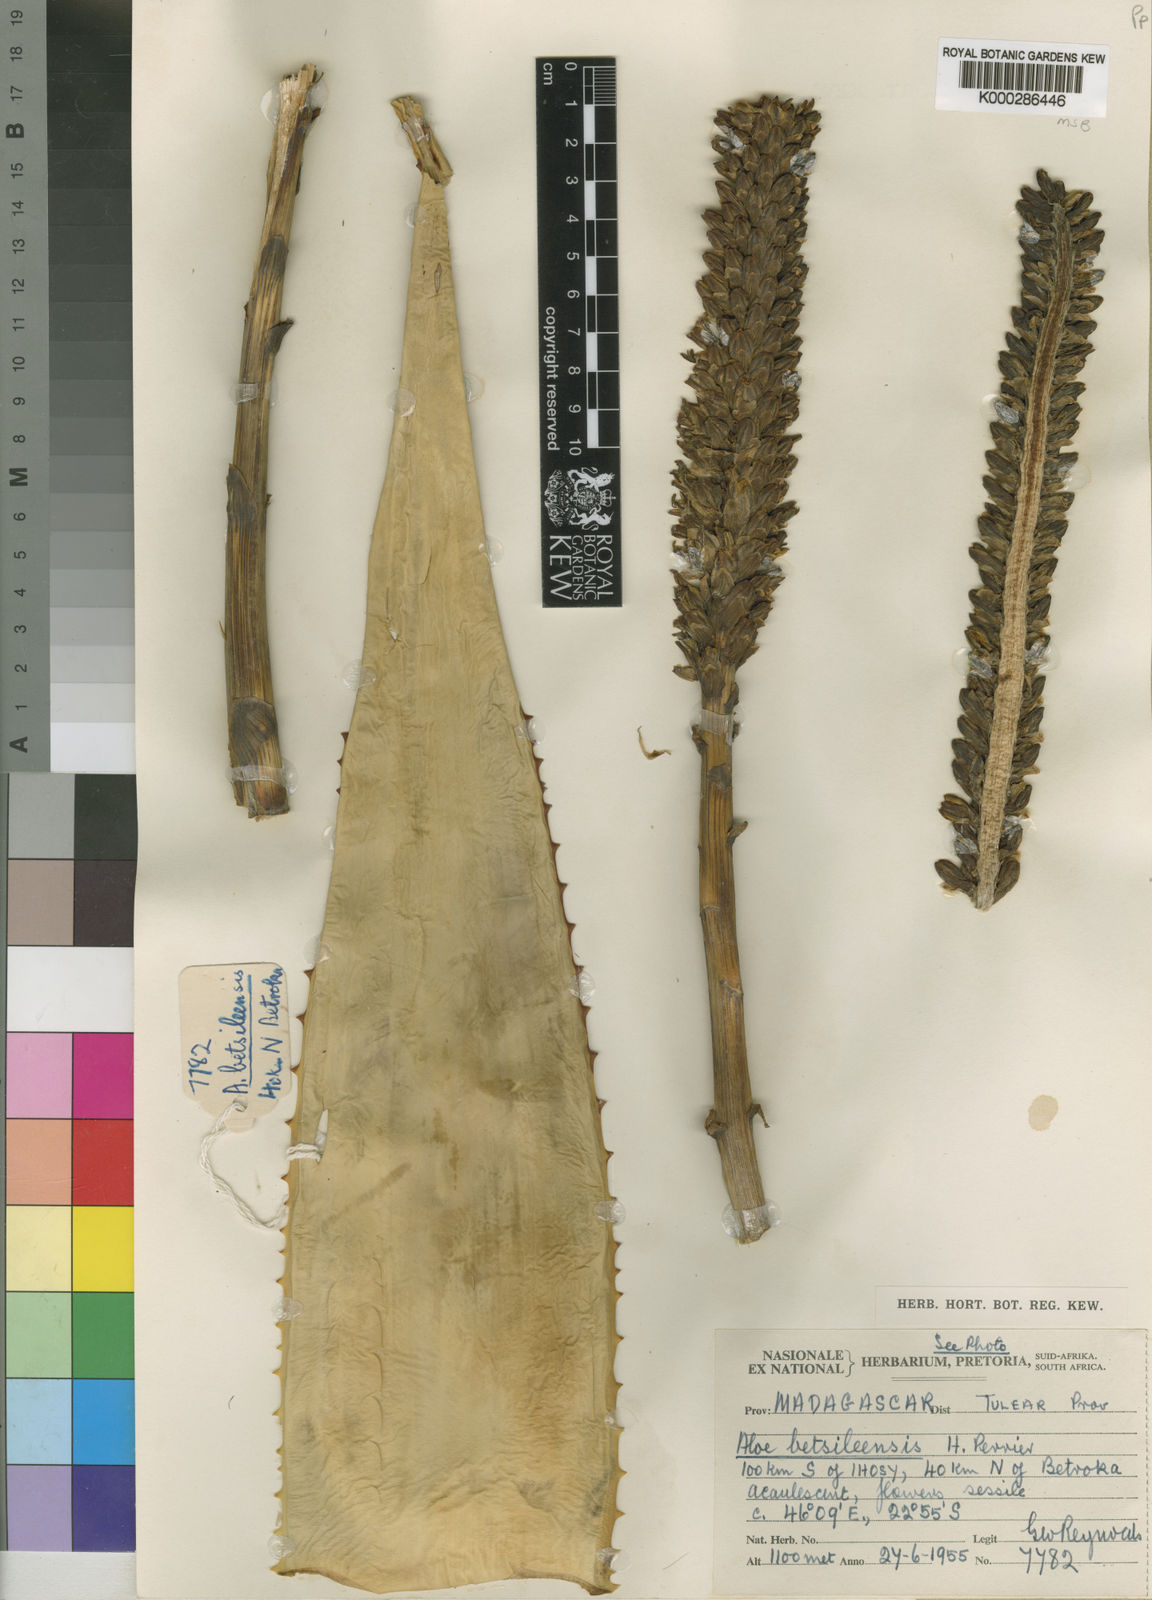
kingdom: Plantae
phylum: Tracheophyta
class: Liliopsida
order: Asparagales
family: Asphodelaceae
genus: Aloe
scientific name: Aloe
